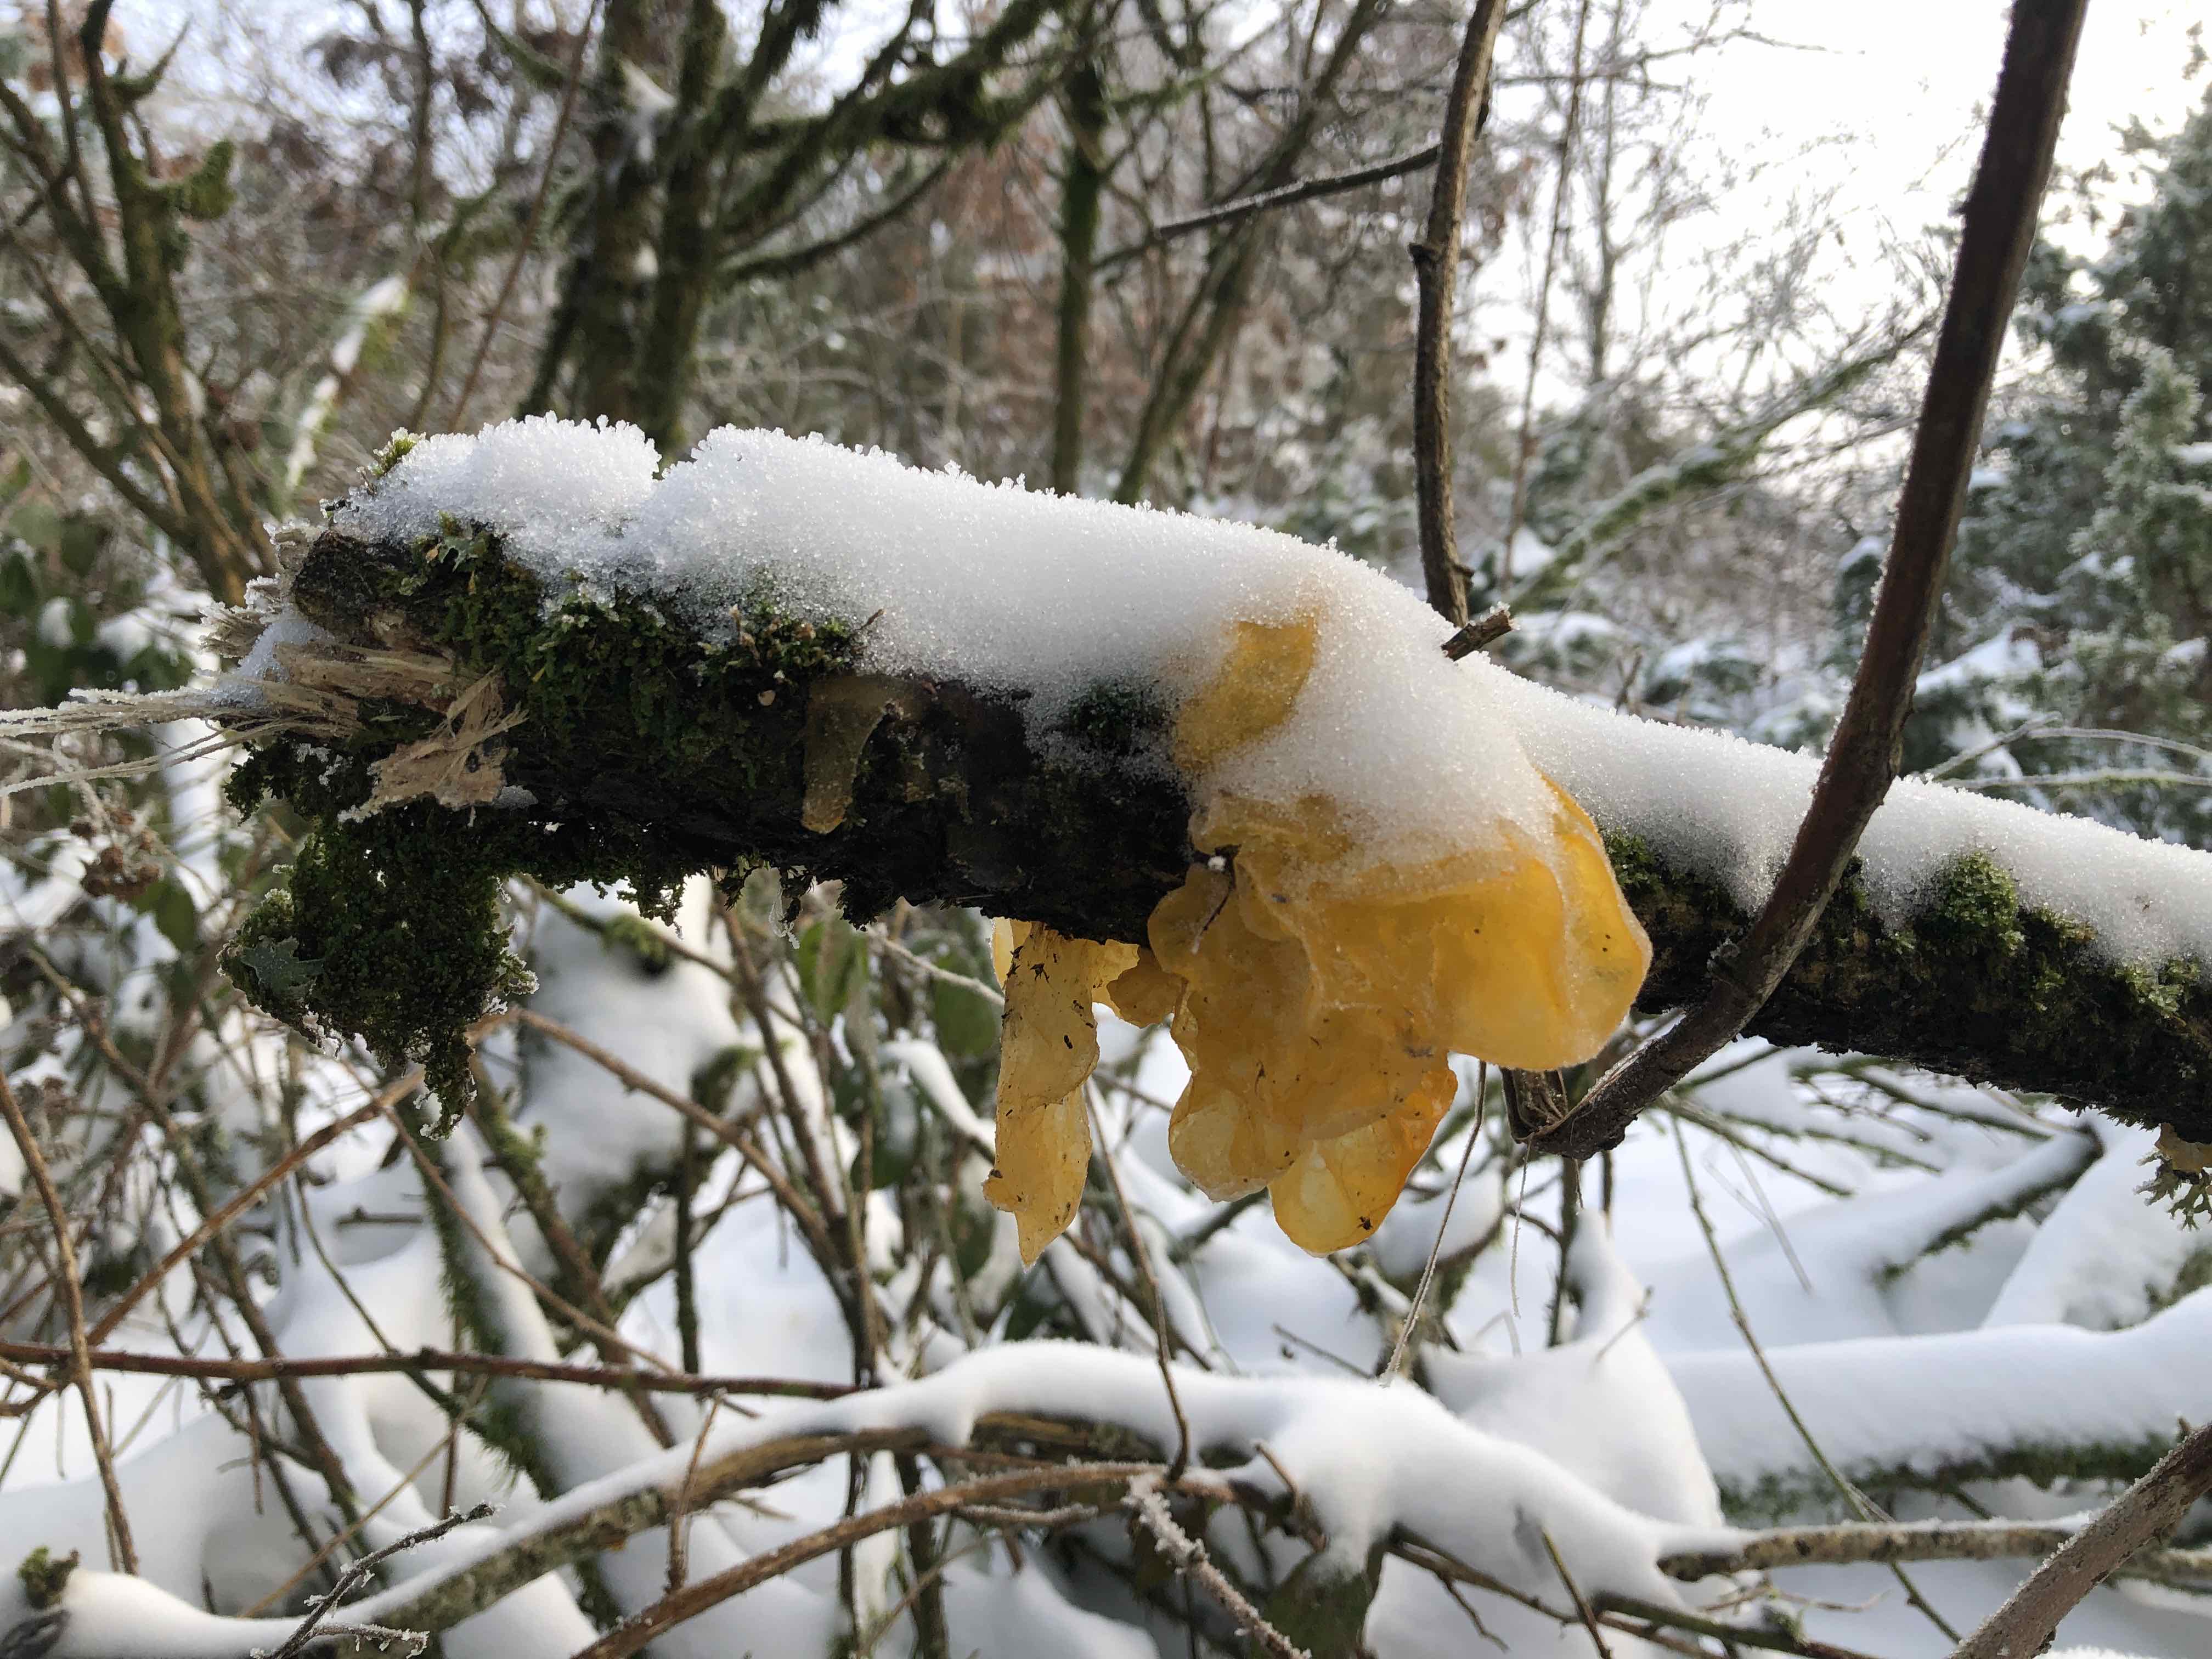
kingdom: Fungi
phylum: Basidiomycota
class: Tremellomycetes
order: Tremellales
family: Tremellaceae
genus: Tremella
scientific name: Tremella mesenterica
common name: gul bævresvamp
